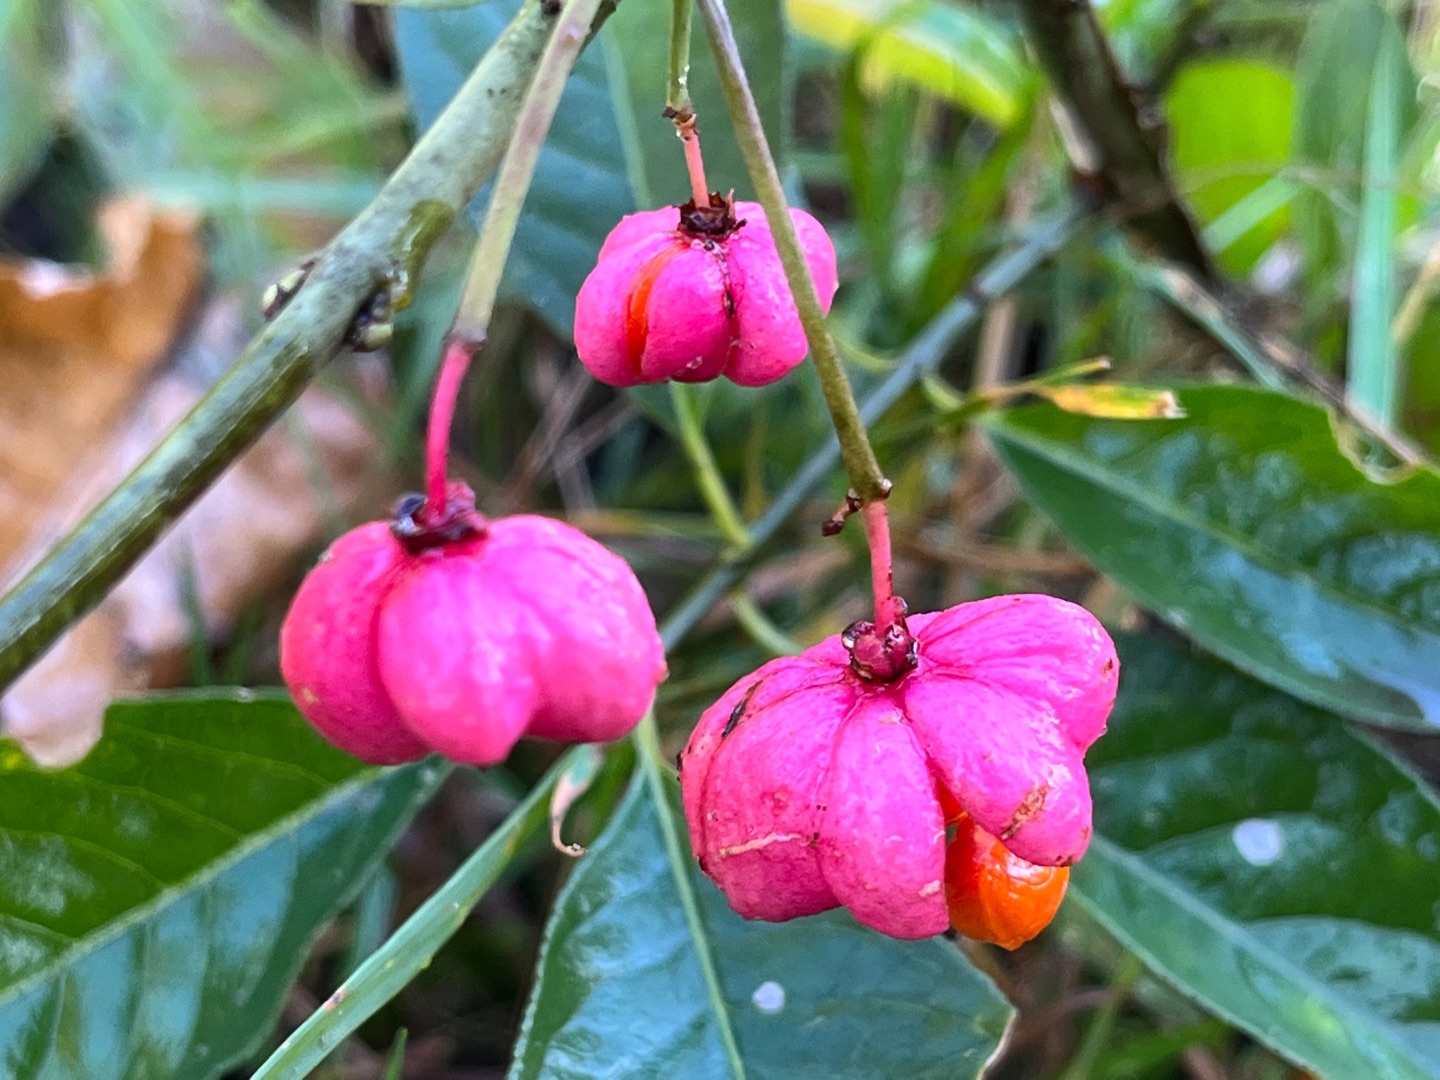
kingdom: Plantae
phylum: Tracheophyta
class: Magnoliopsida
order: Celastrales
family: Celastraceae
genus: Euonymus
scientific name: Euonymus europaeus
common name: Benved
